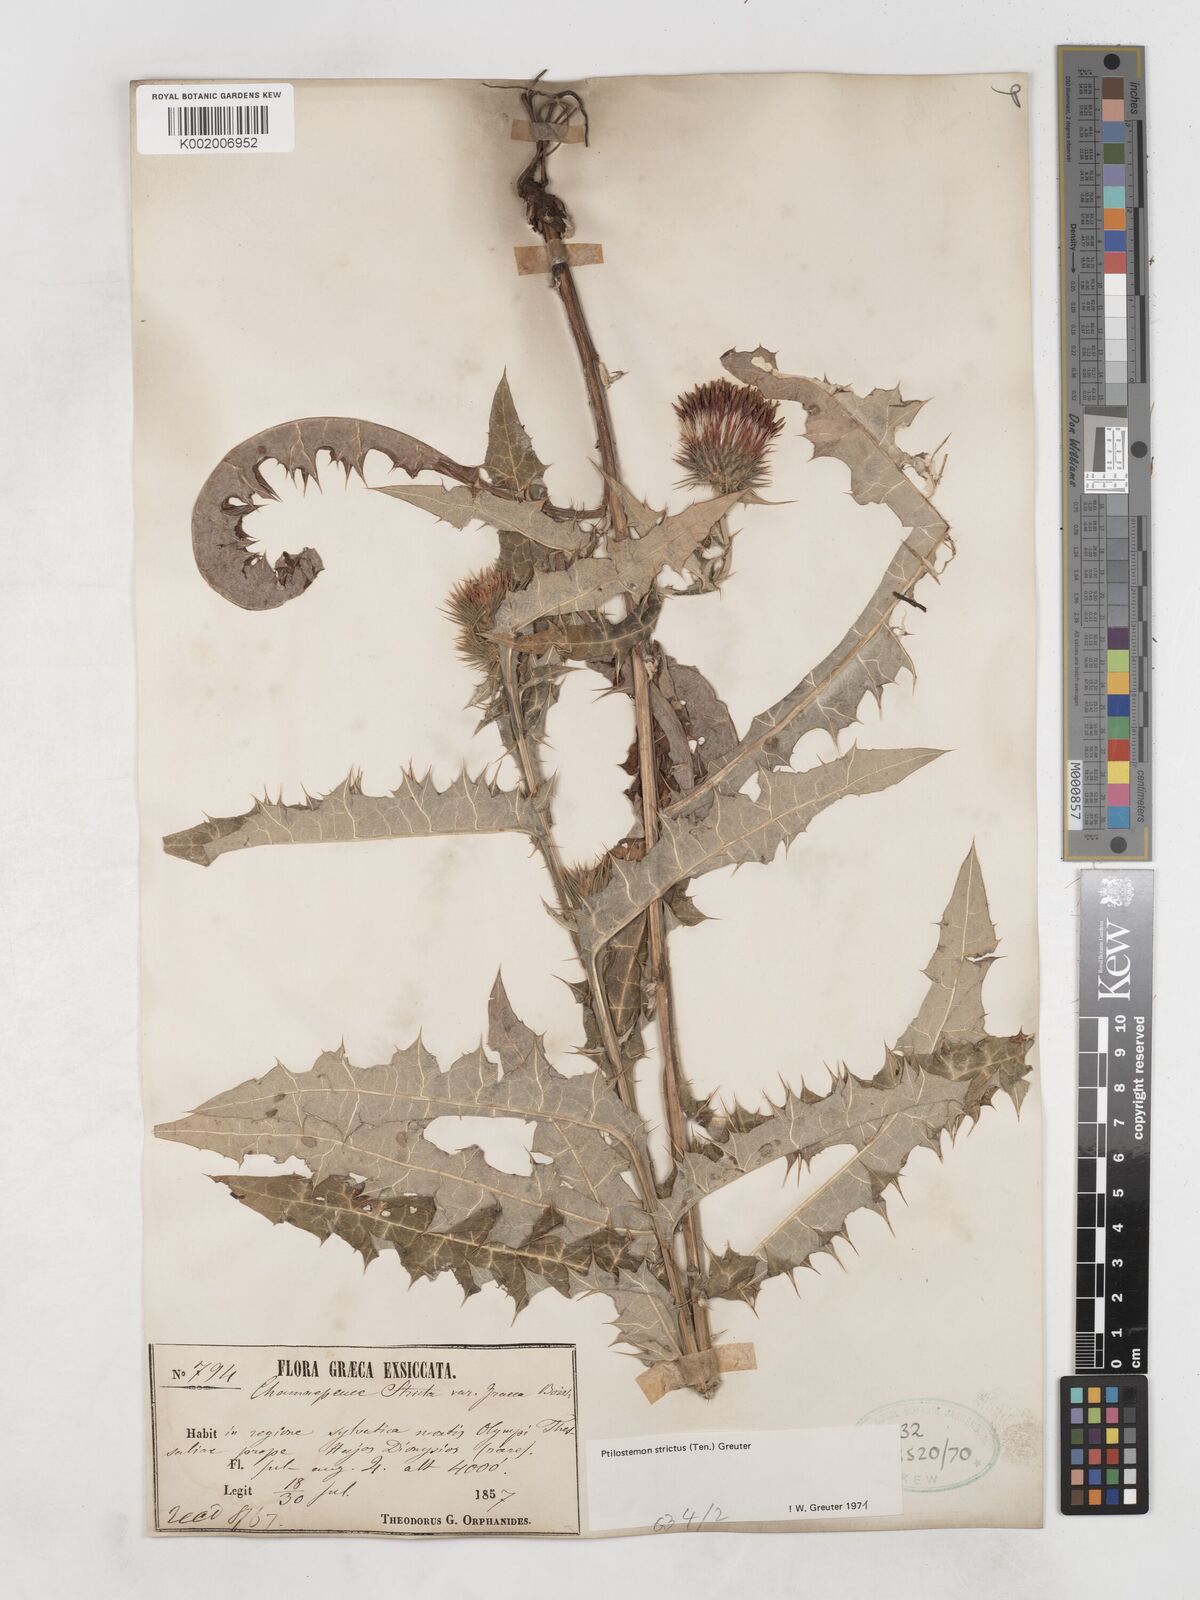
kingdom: Plantae
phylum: Tracheophyta
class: Magnoliopsida
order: Asterales
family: Asteraceae
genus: Ptilostemon
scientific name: Ptilostemon strictus
